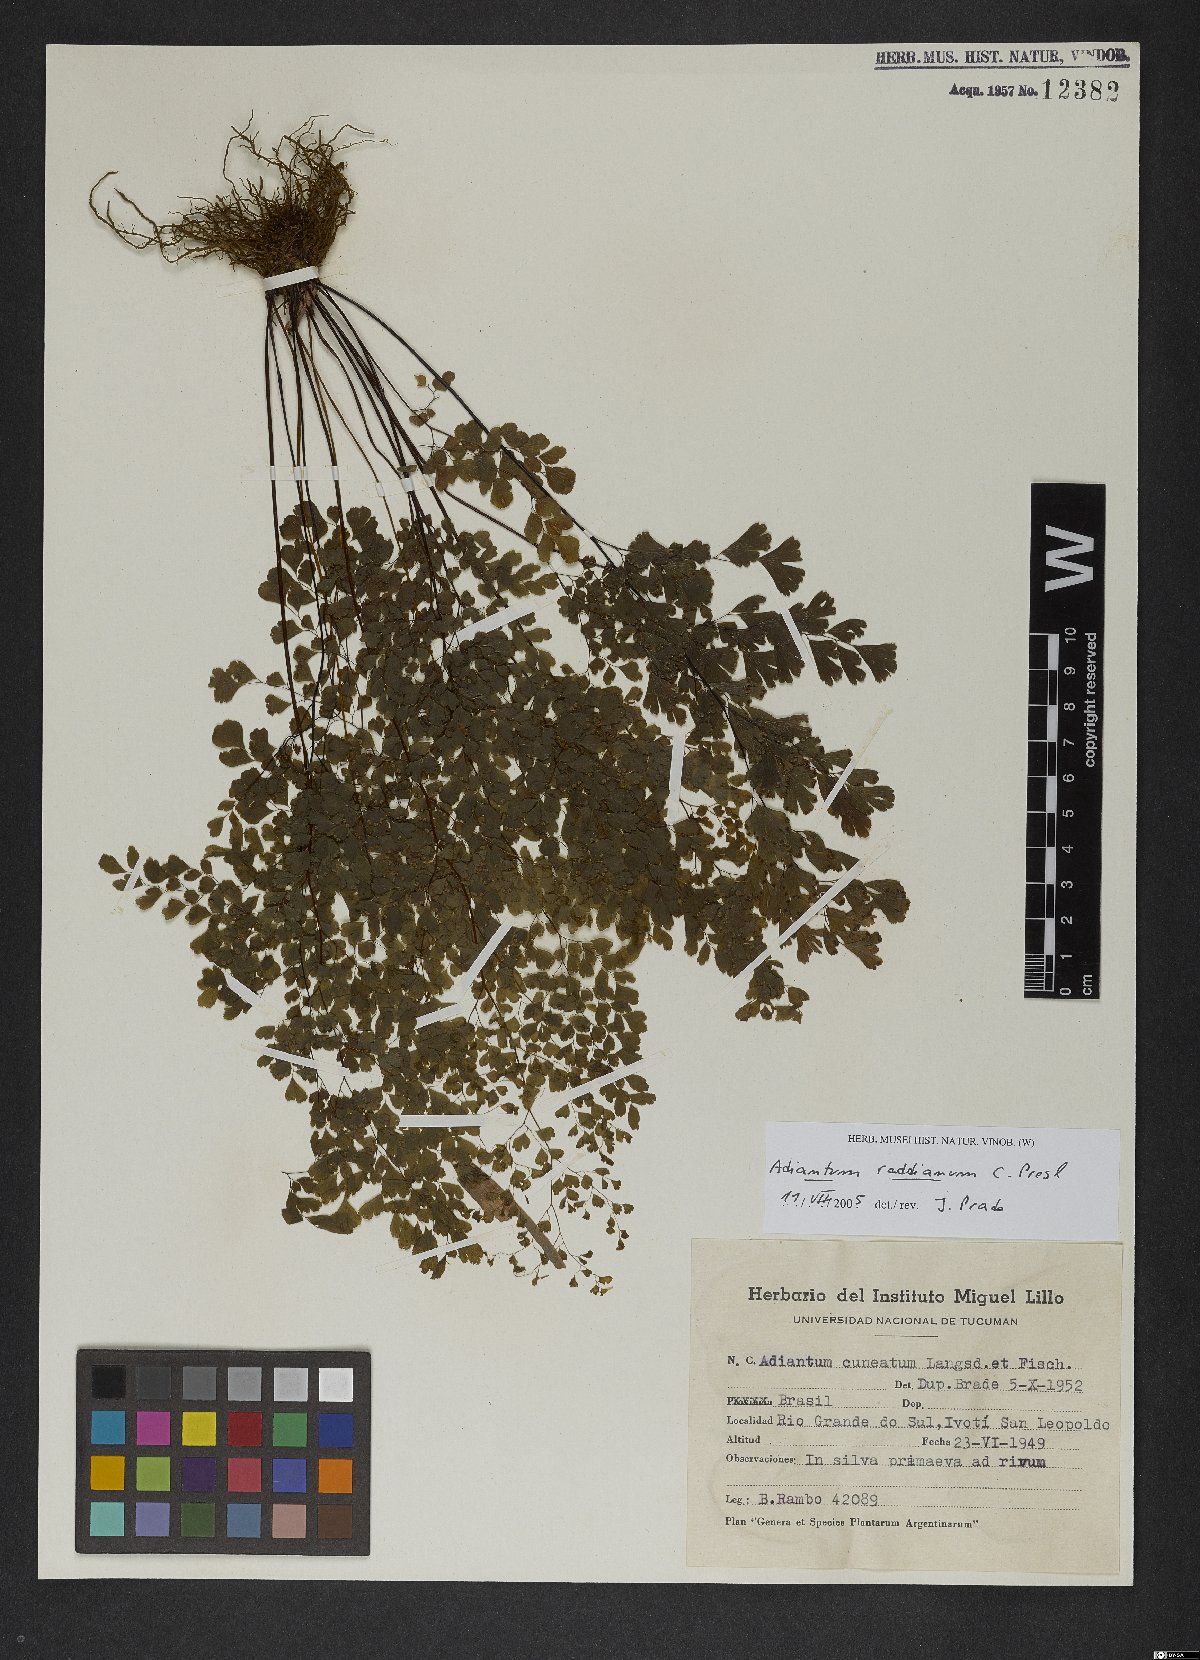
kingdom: Plantae
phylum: Tracheophyta
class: Polypodiopsida
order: Polypodiales
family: Pteridaceae
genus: Adiantum
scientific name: Adiantum raddianum
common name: Delta maidenhair fern
